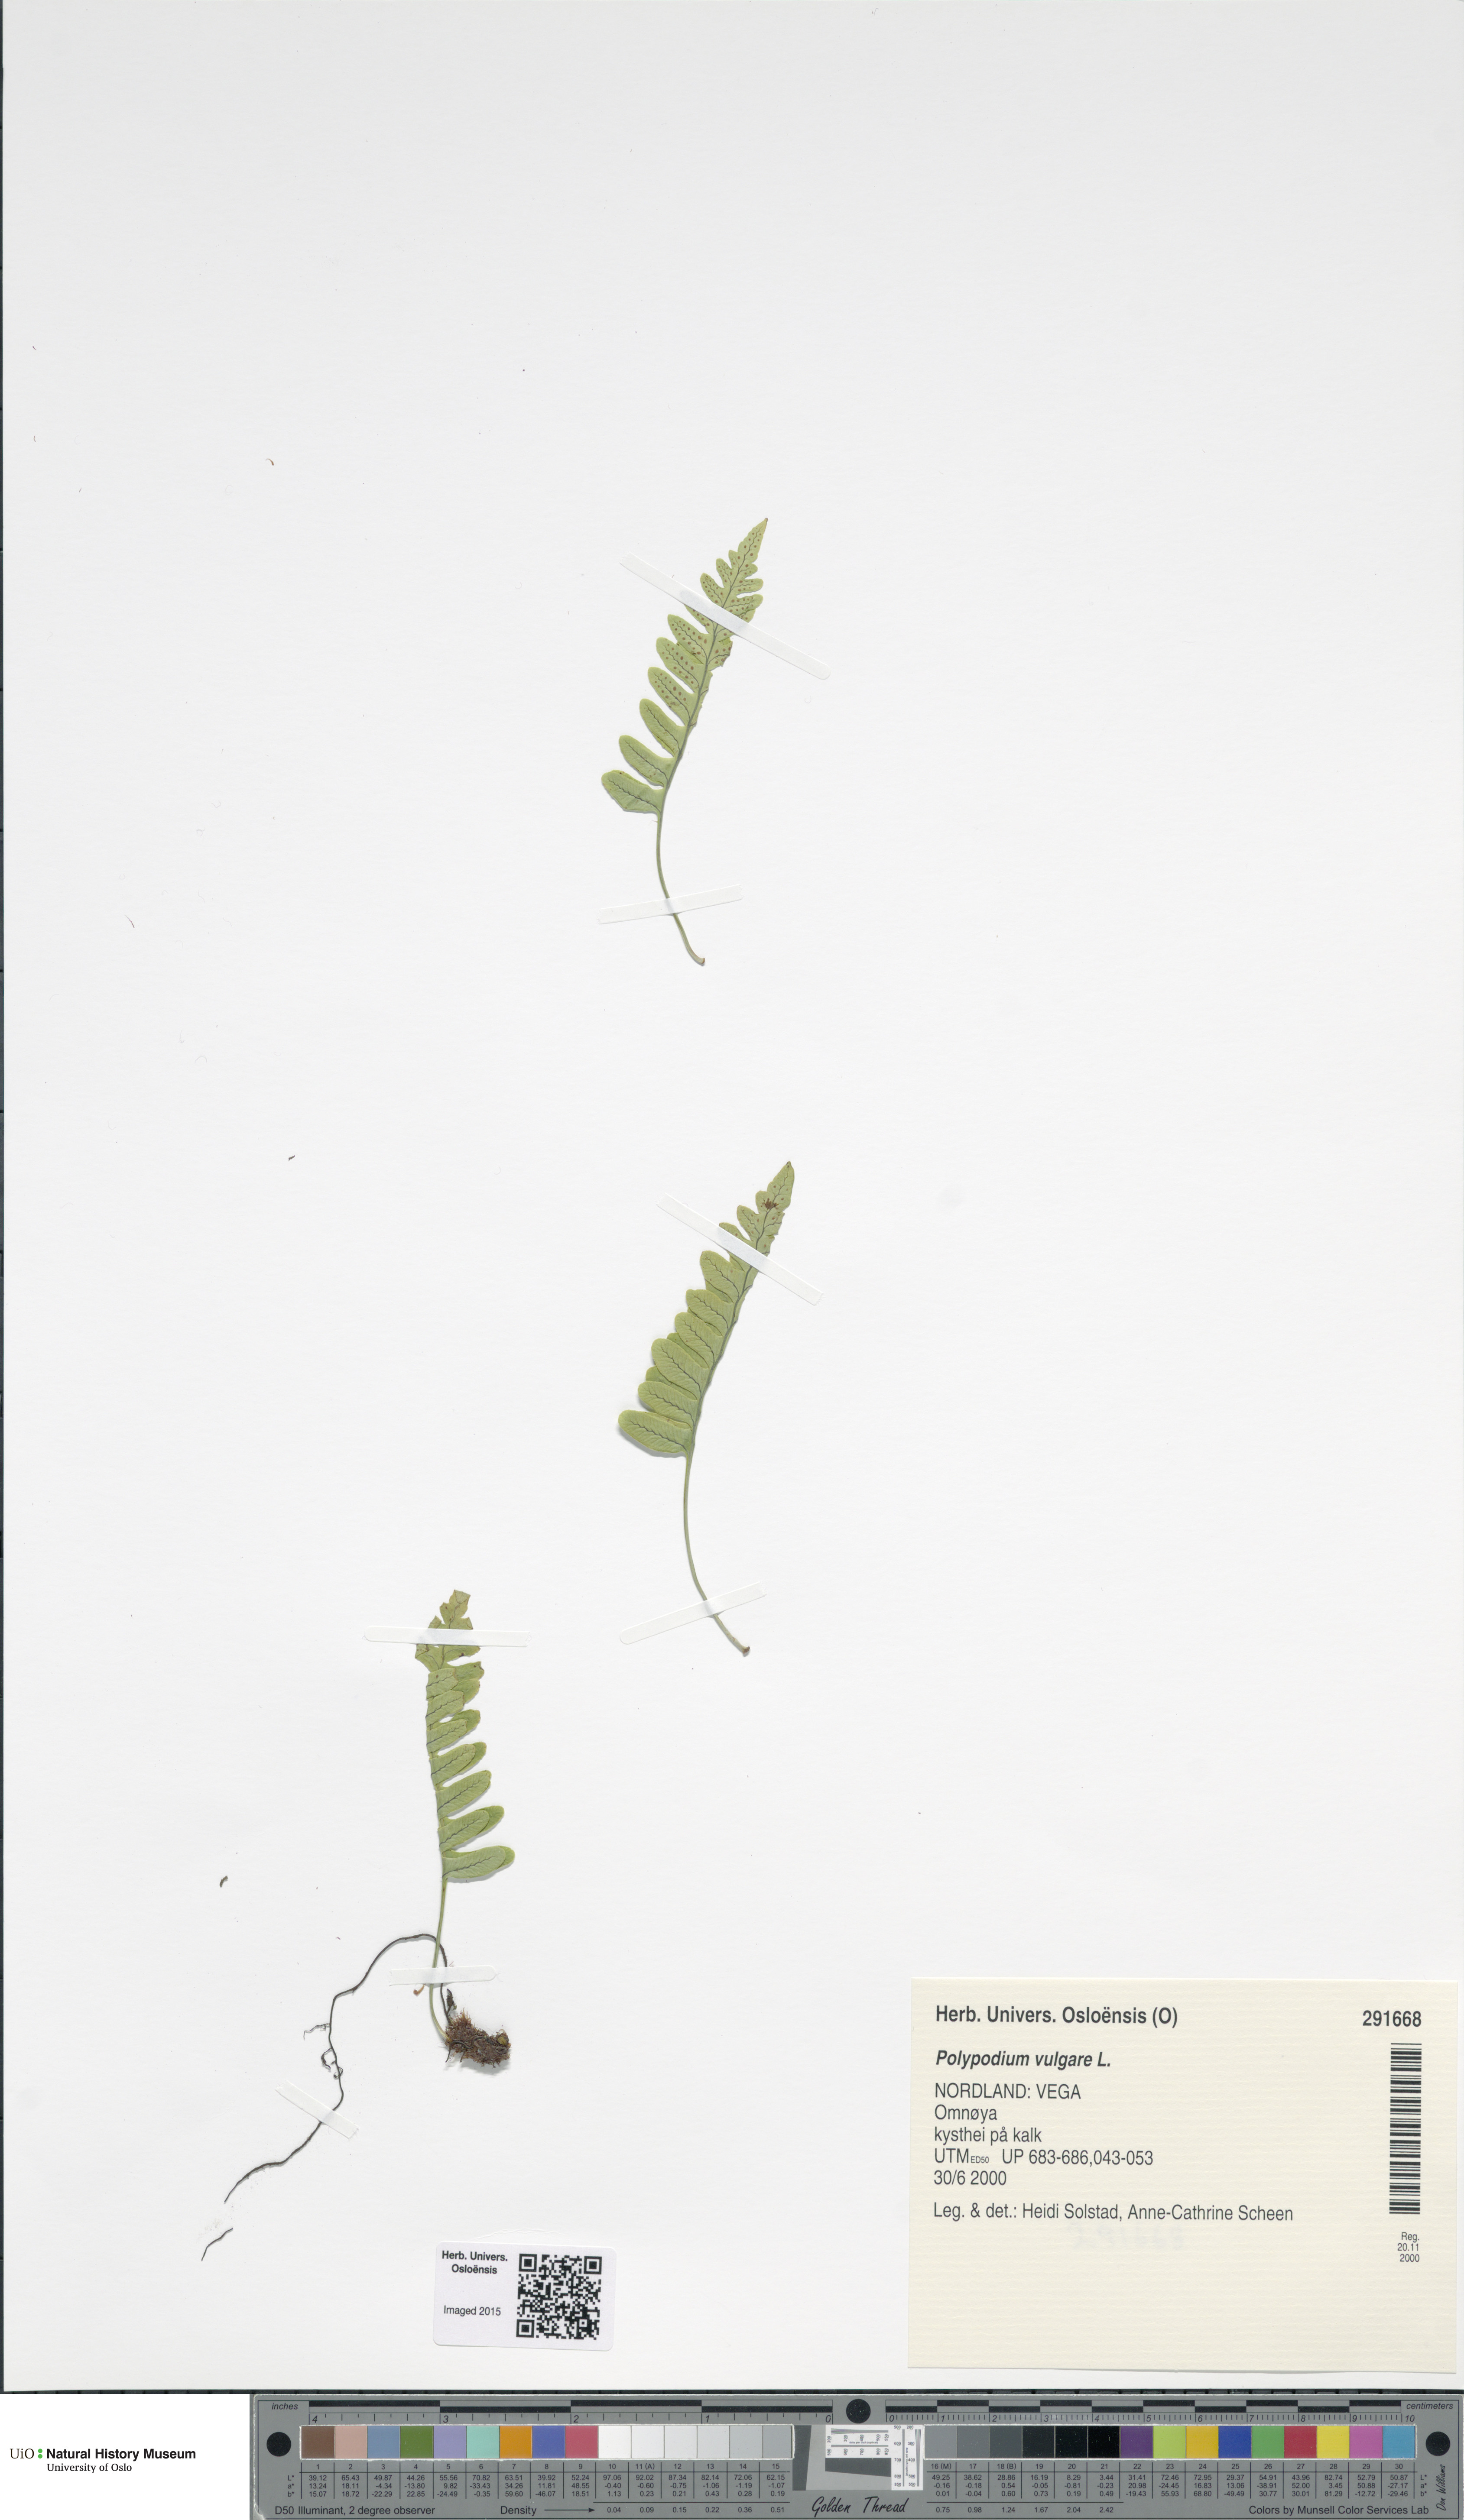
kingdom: Plantae
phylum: Tracheophyta
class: Polypodiopsida
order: Polypodiales
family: Polypodiaceae
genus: Polypodium
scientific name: Polypodium vulgare
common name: Common polypody
